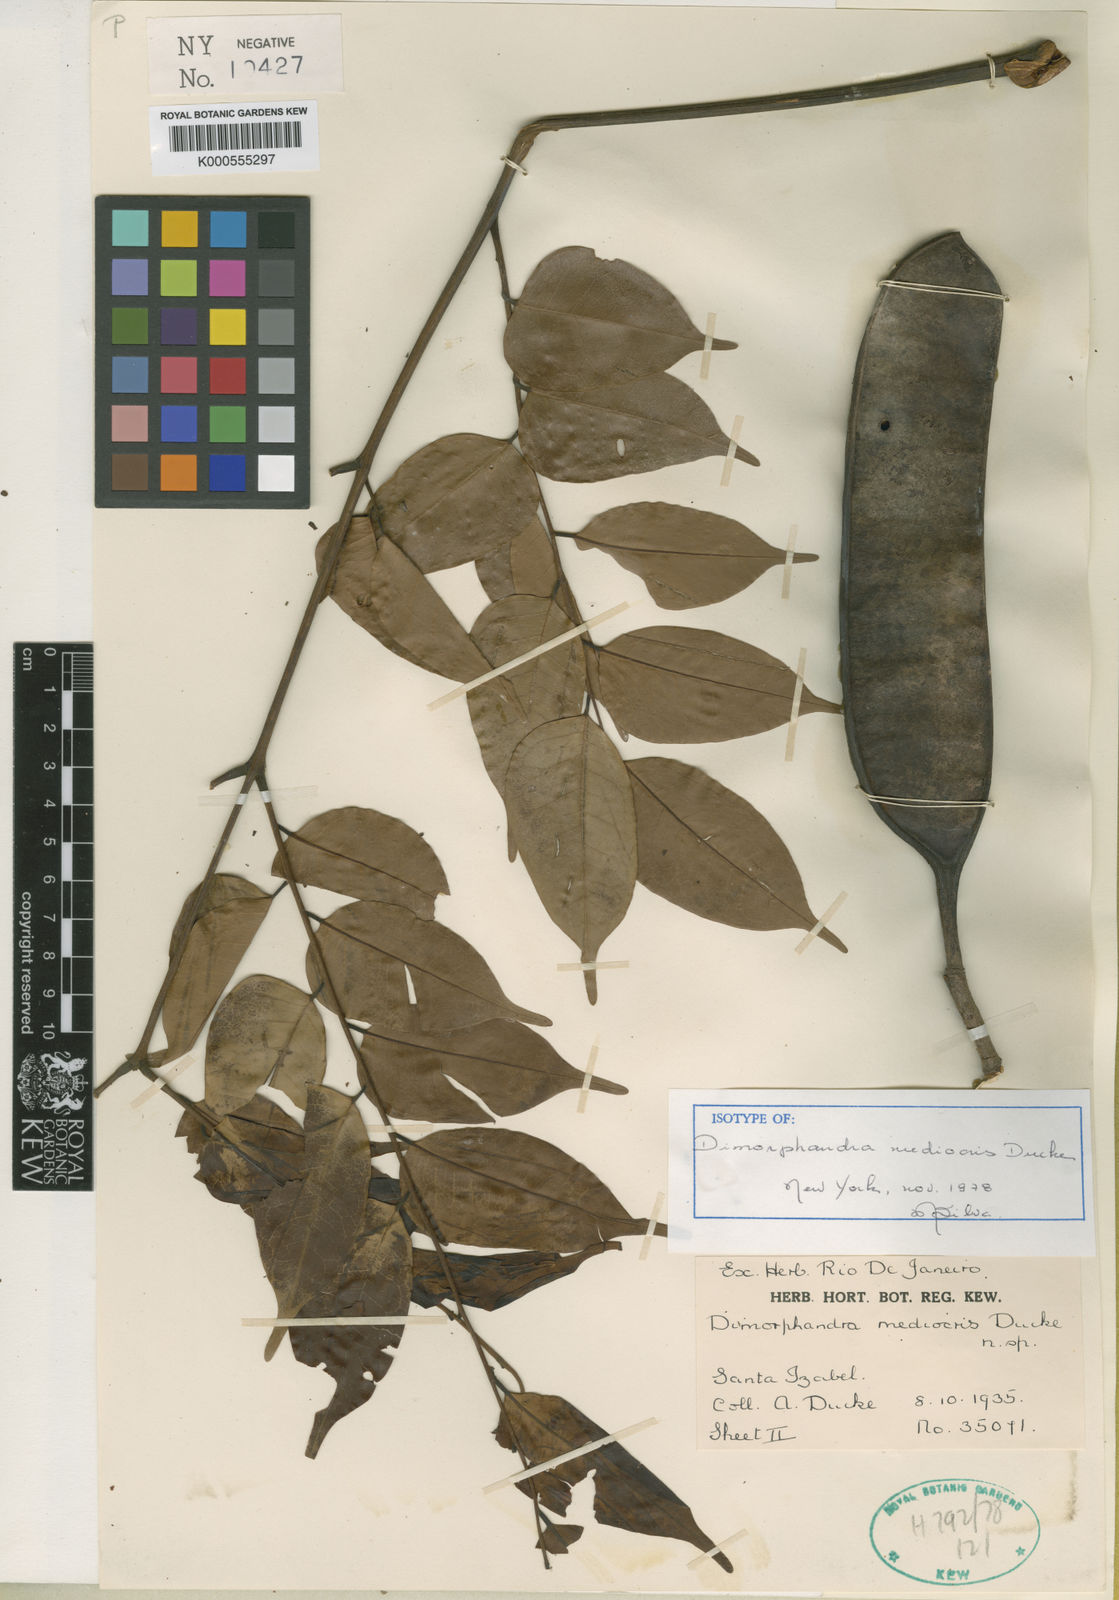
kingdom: Plantae
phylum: Tracheophyta
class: Magnoliopsida
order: Fabales
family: Fabaceae
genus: Dimorphandra
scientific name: Dimorphandra mediocris
